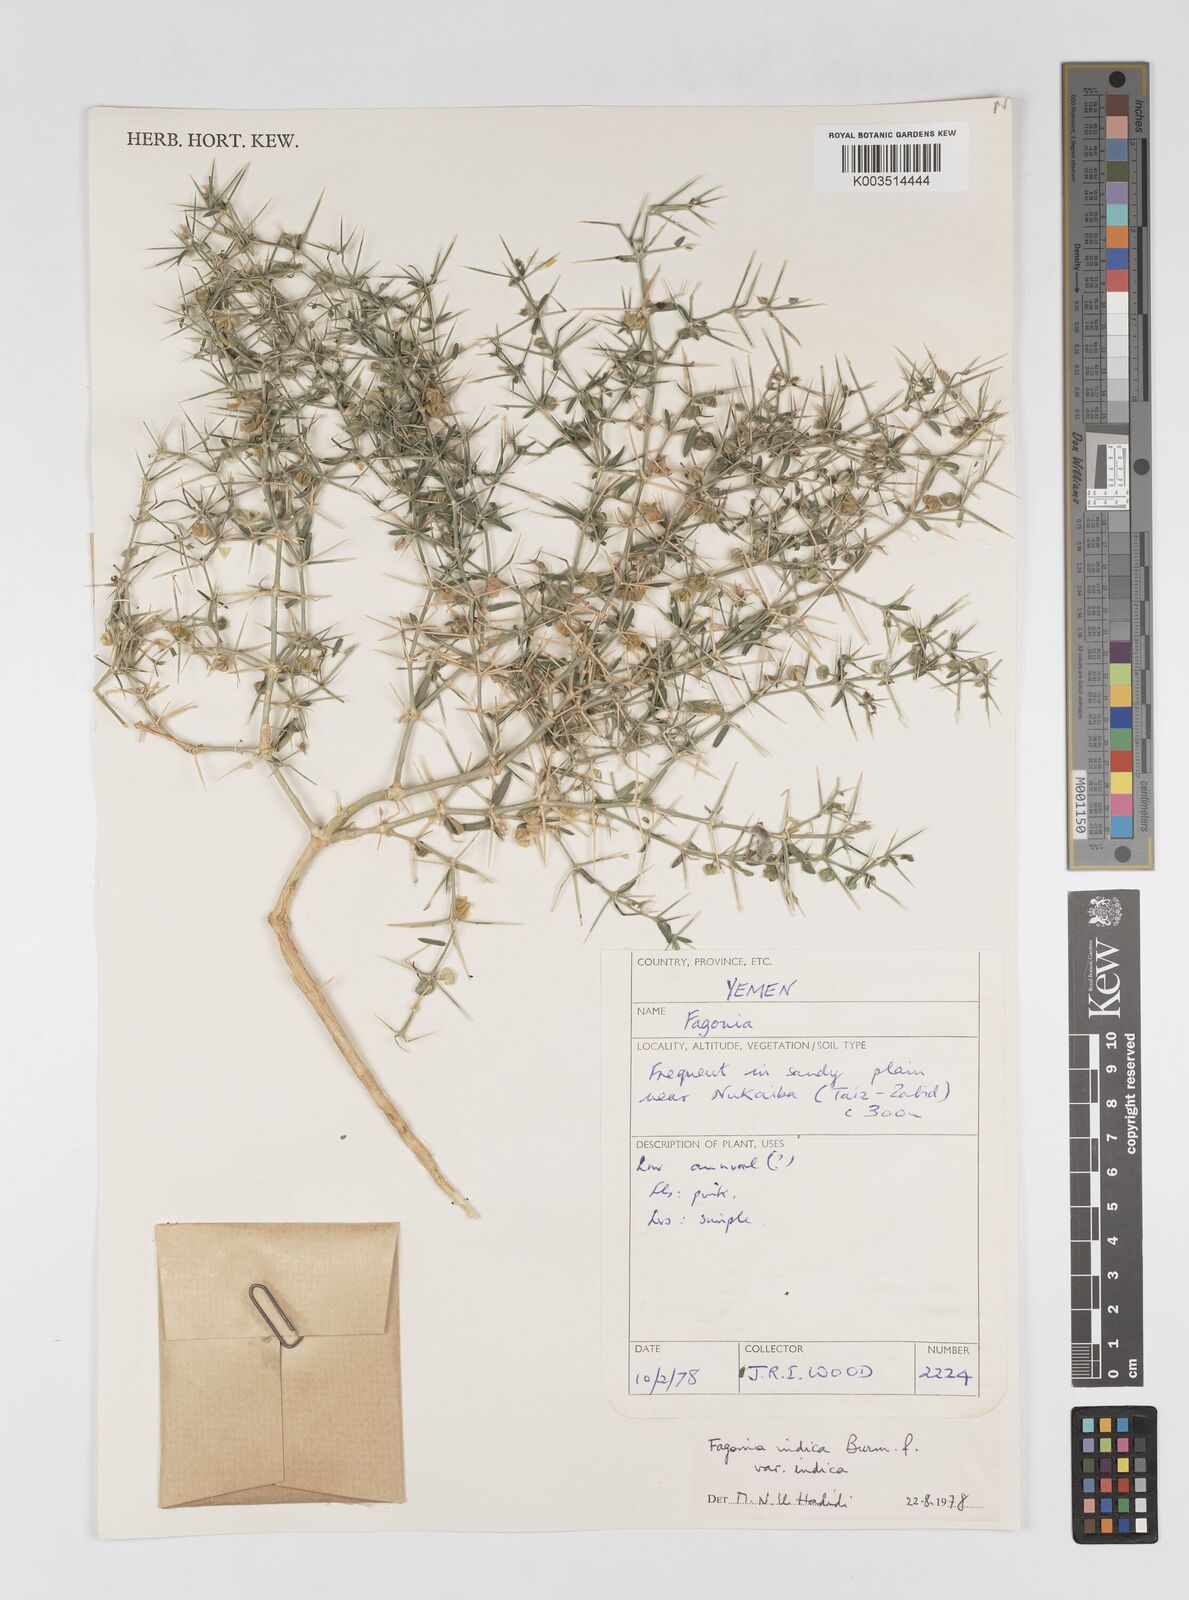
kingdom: Plantae
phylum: Tracheophyta
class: Magnoliopsida
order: Zygophyllales
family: Zygophyllaceae
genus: Fagonia
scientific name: Fagonia indica
